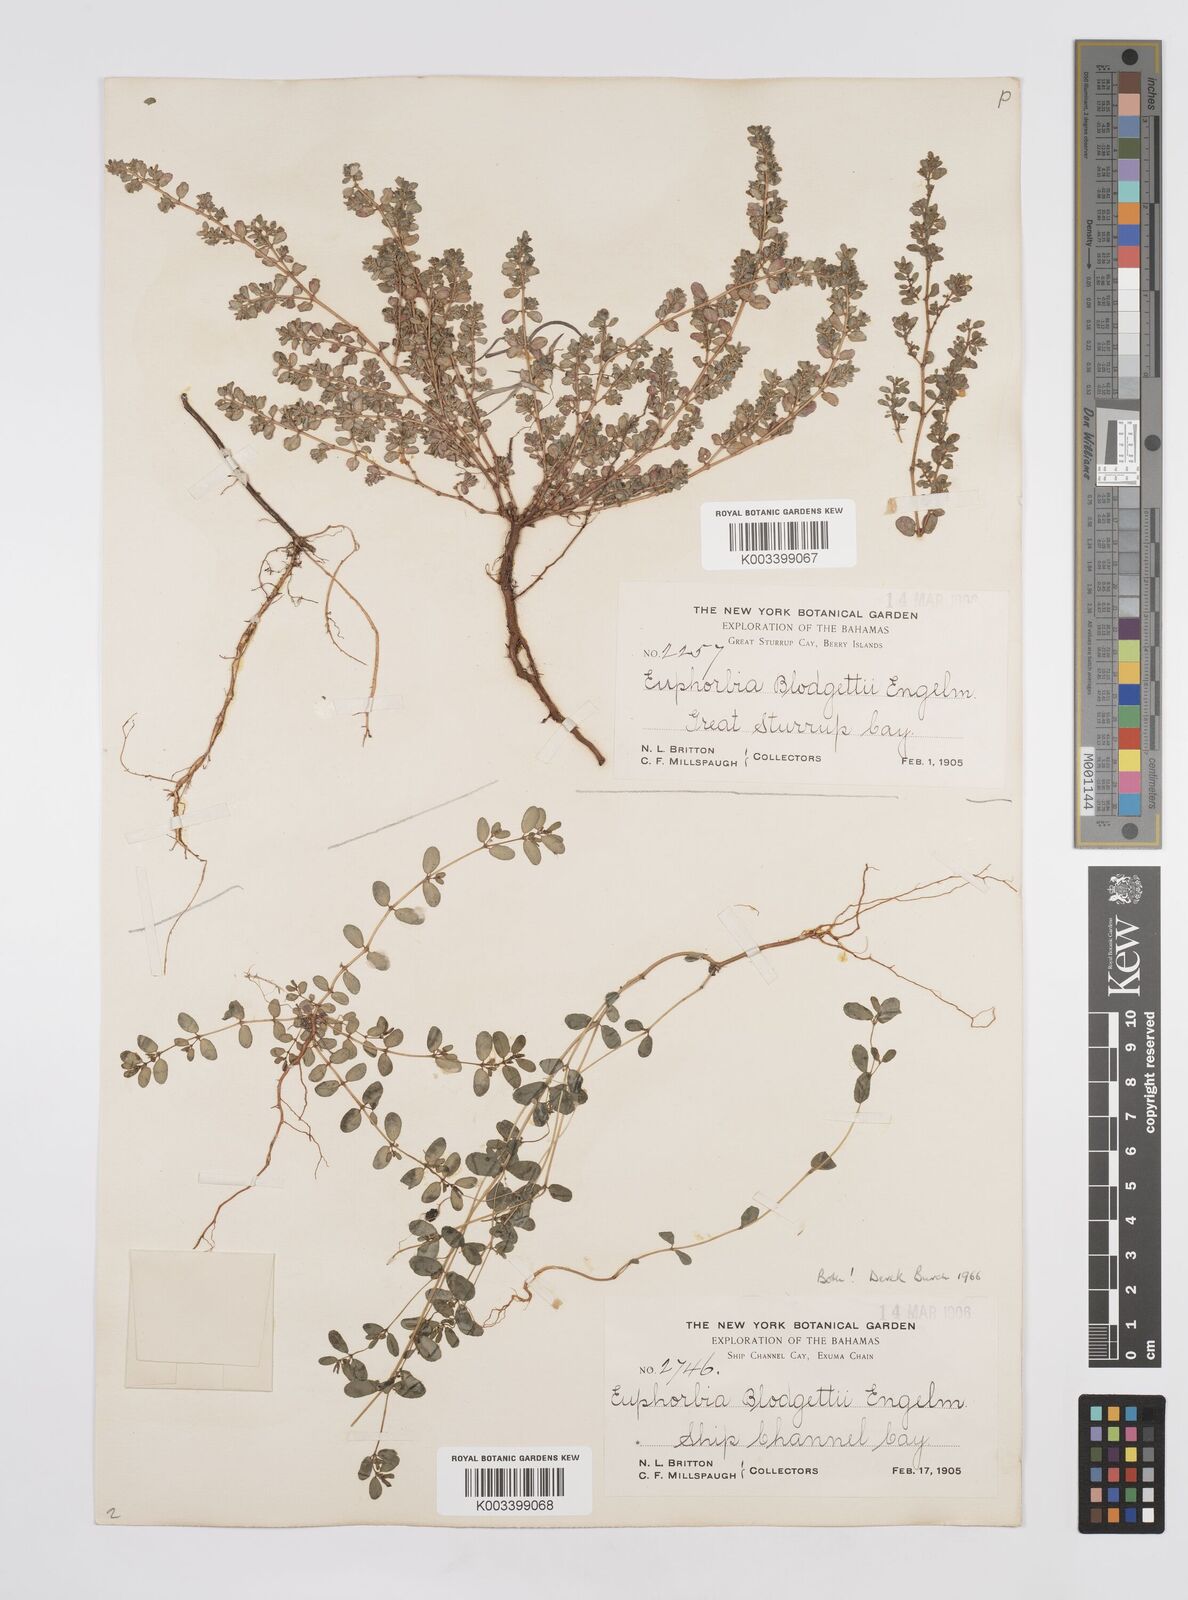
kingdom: Plantae
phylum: Tracheophyta
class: Magnoliopsida
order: Malpighiales
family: Euphorbiaceae
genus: Euphorbia
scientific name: Euphorbia blodgettii
